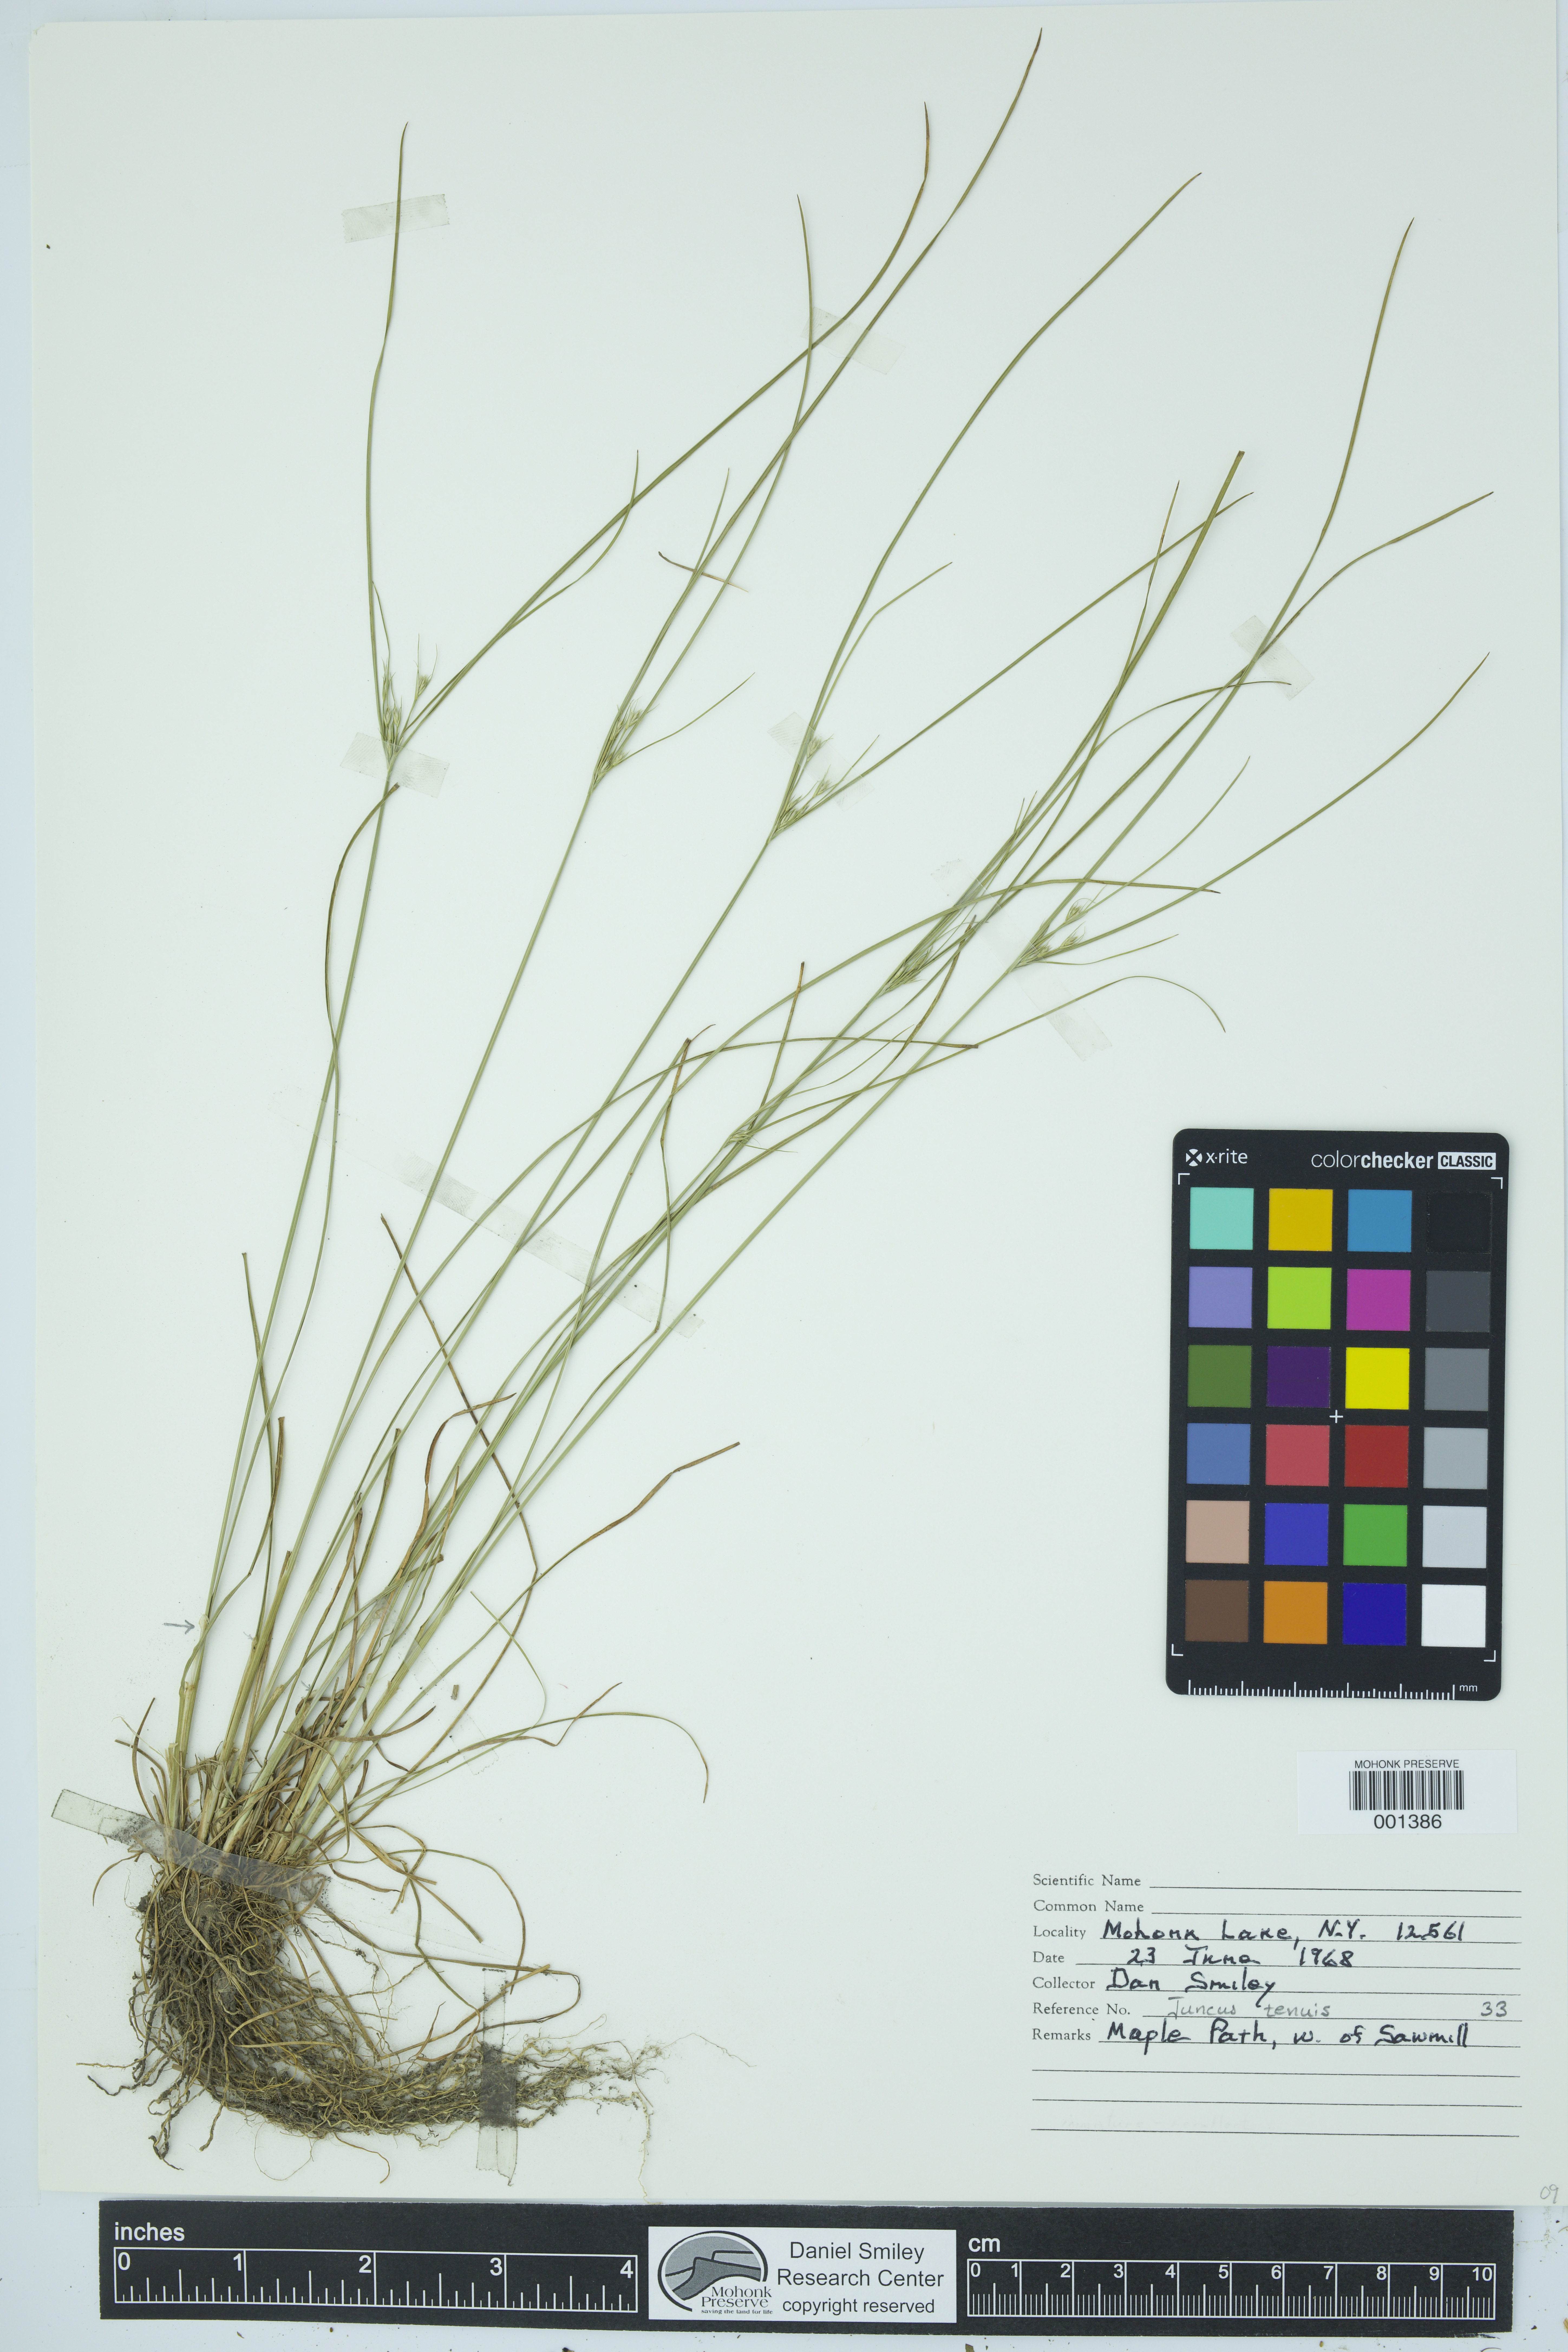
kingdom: Plantae
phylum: Tracheophyta
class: Liliopsida
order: Poales
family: Juncaceae
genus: Juncus
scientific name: Juncus tenuis
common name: Slender rush
